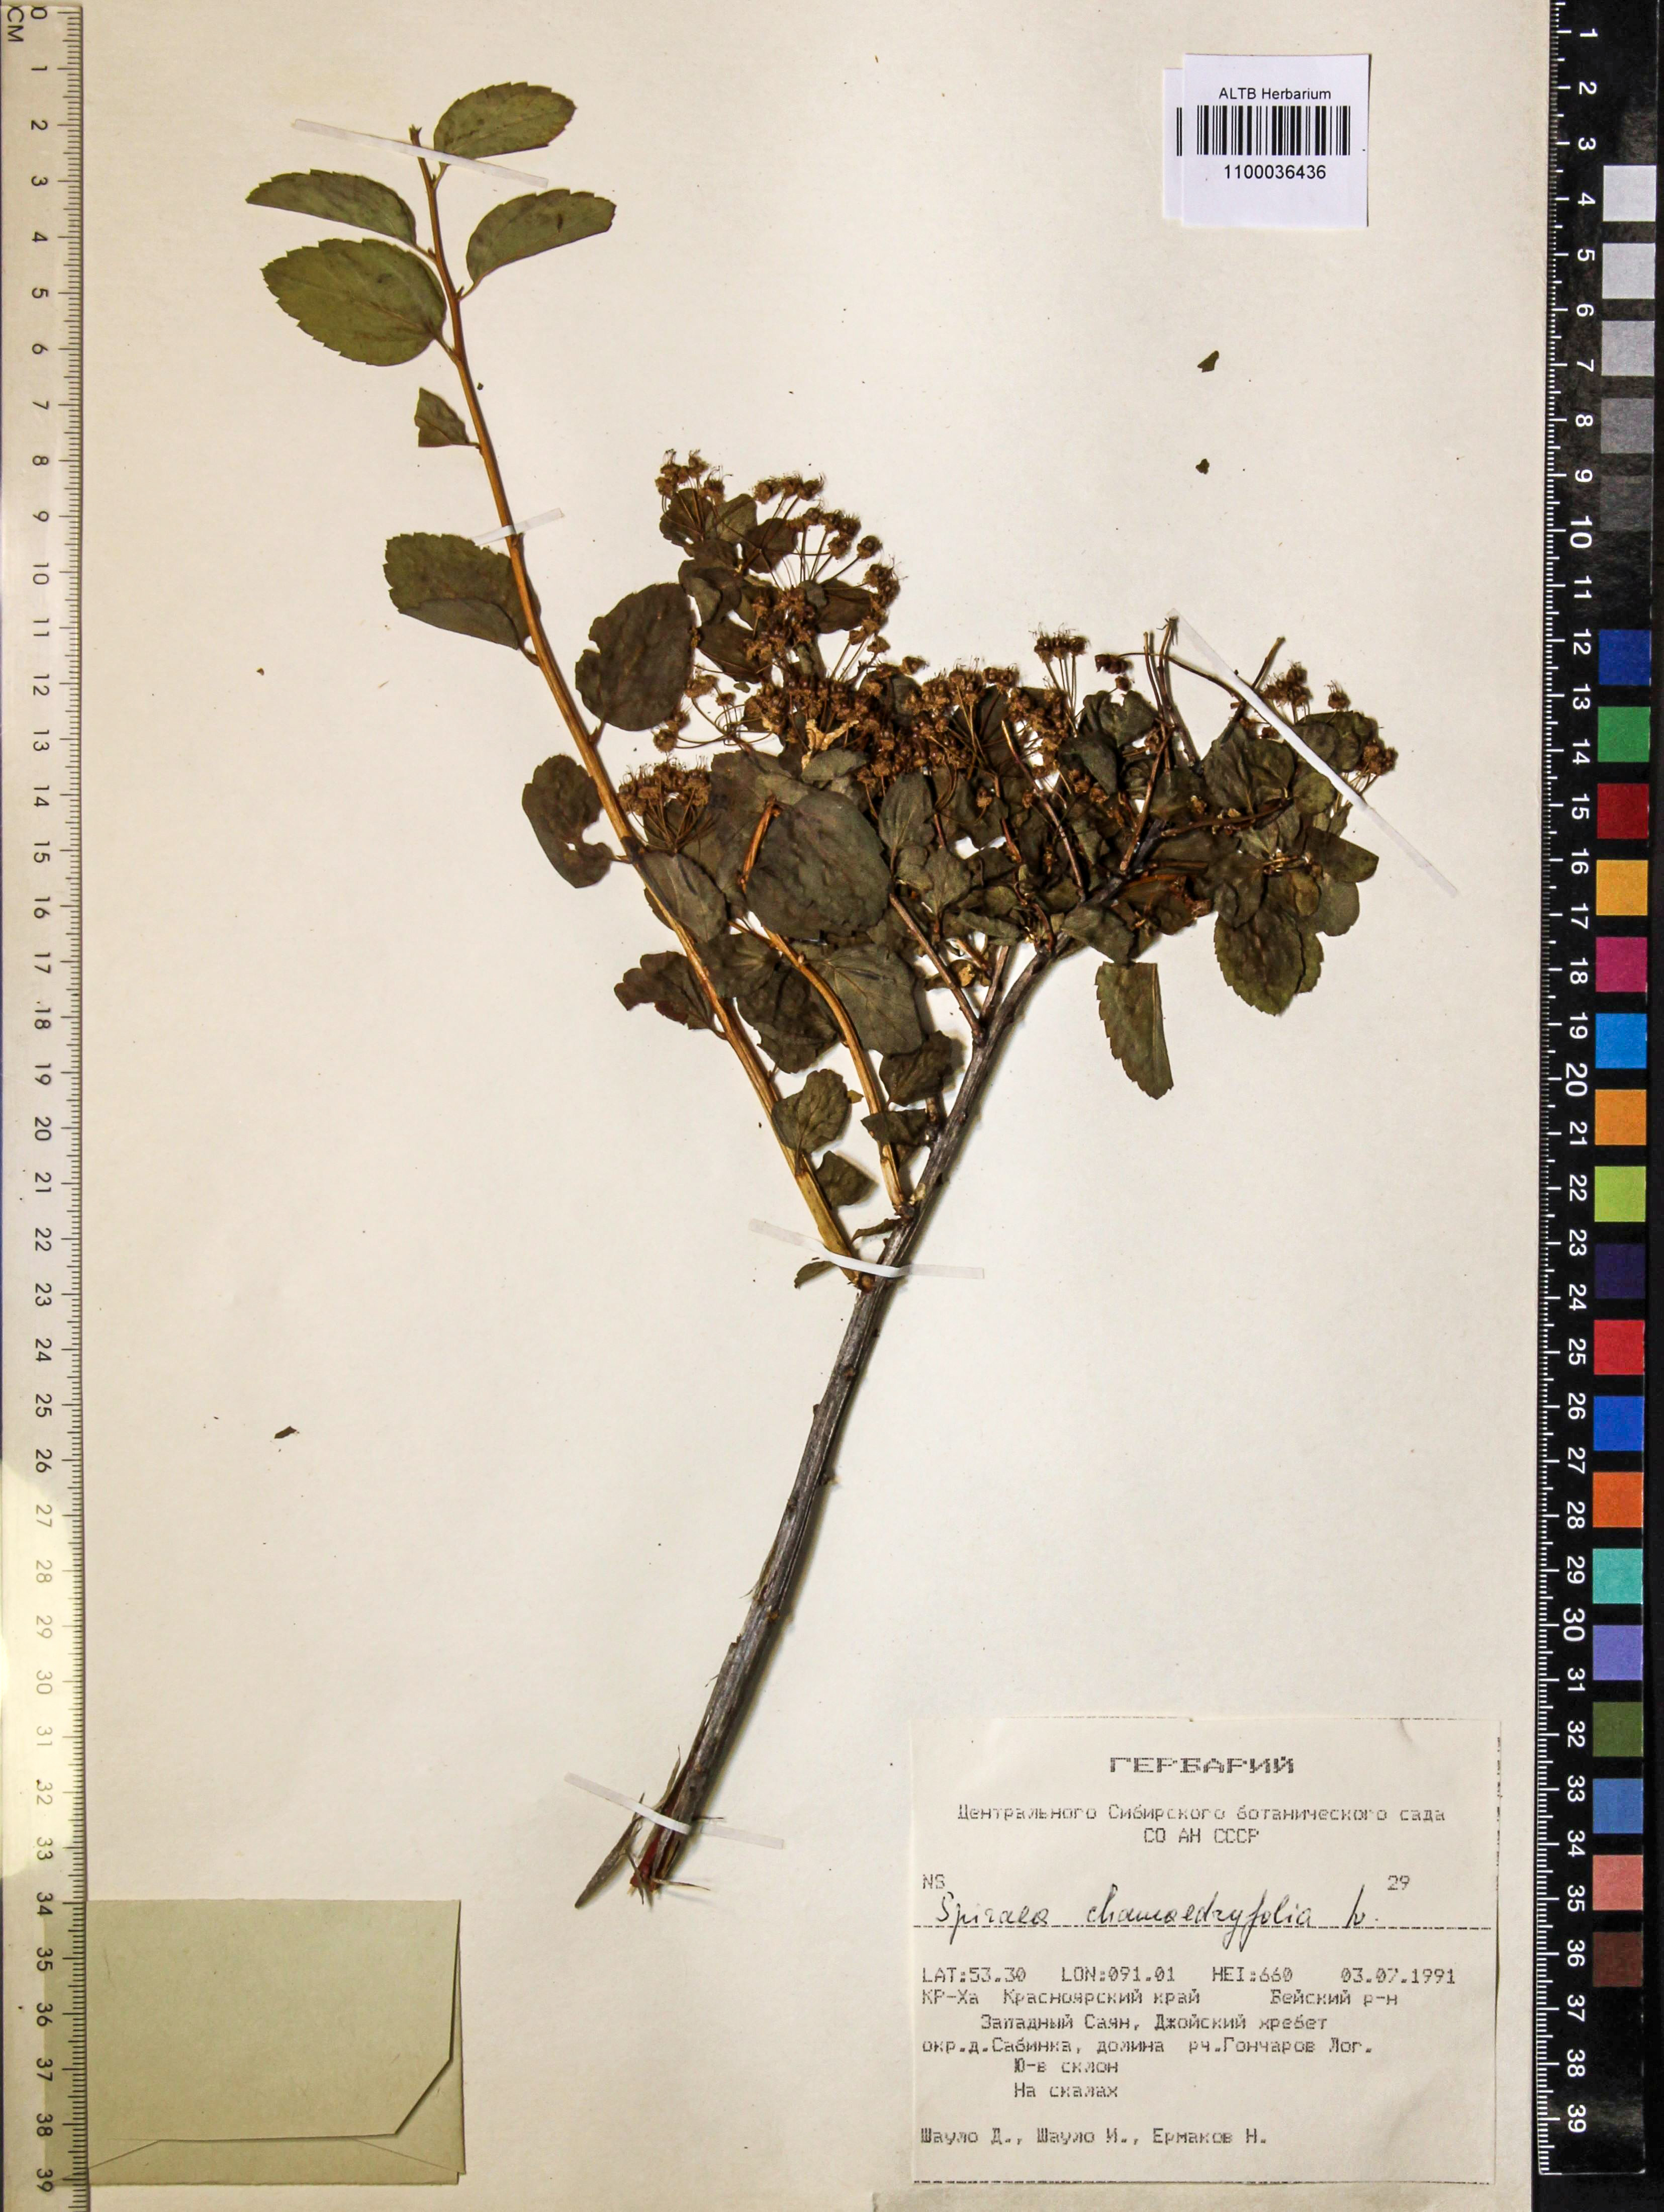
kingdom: Plantae
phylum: Tracheophyta
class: Magnoliopsida
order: Rosales
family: Rosaceae
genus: Spiraea
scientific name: Spiraea chamaedryfolia
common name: Elm-leaved spiraea
